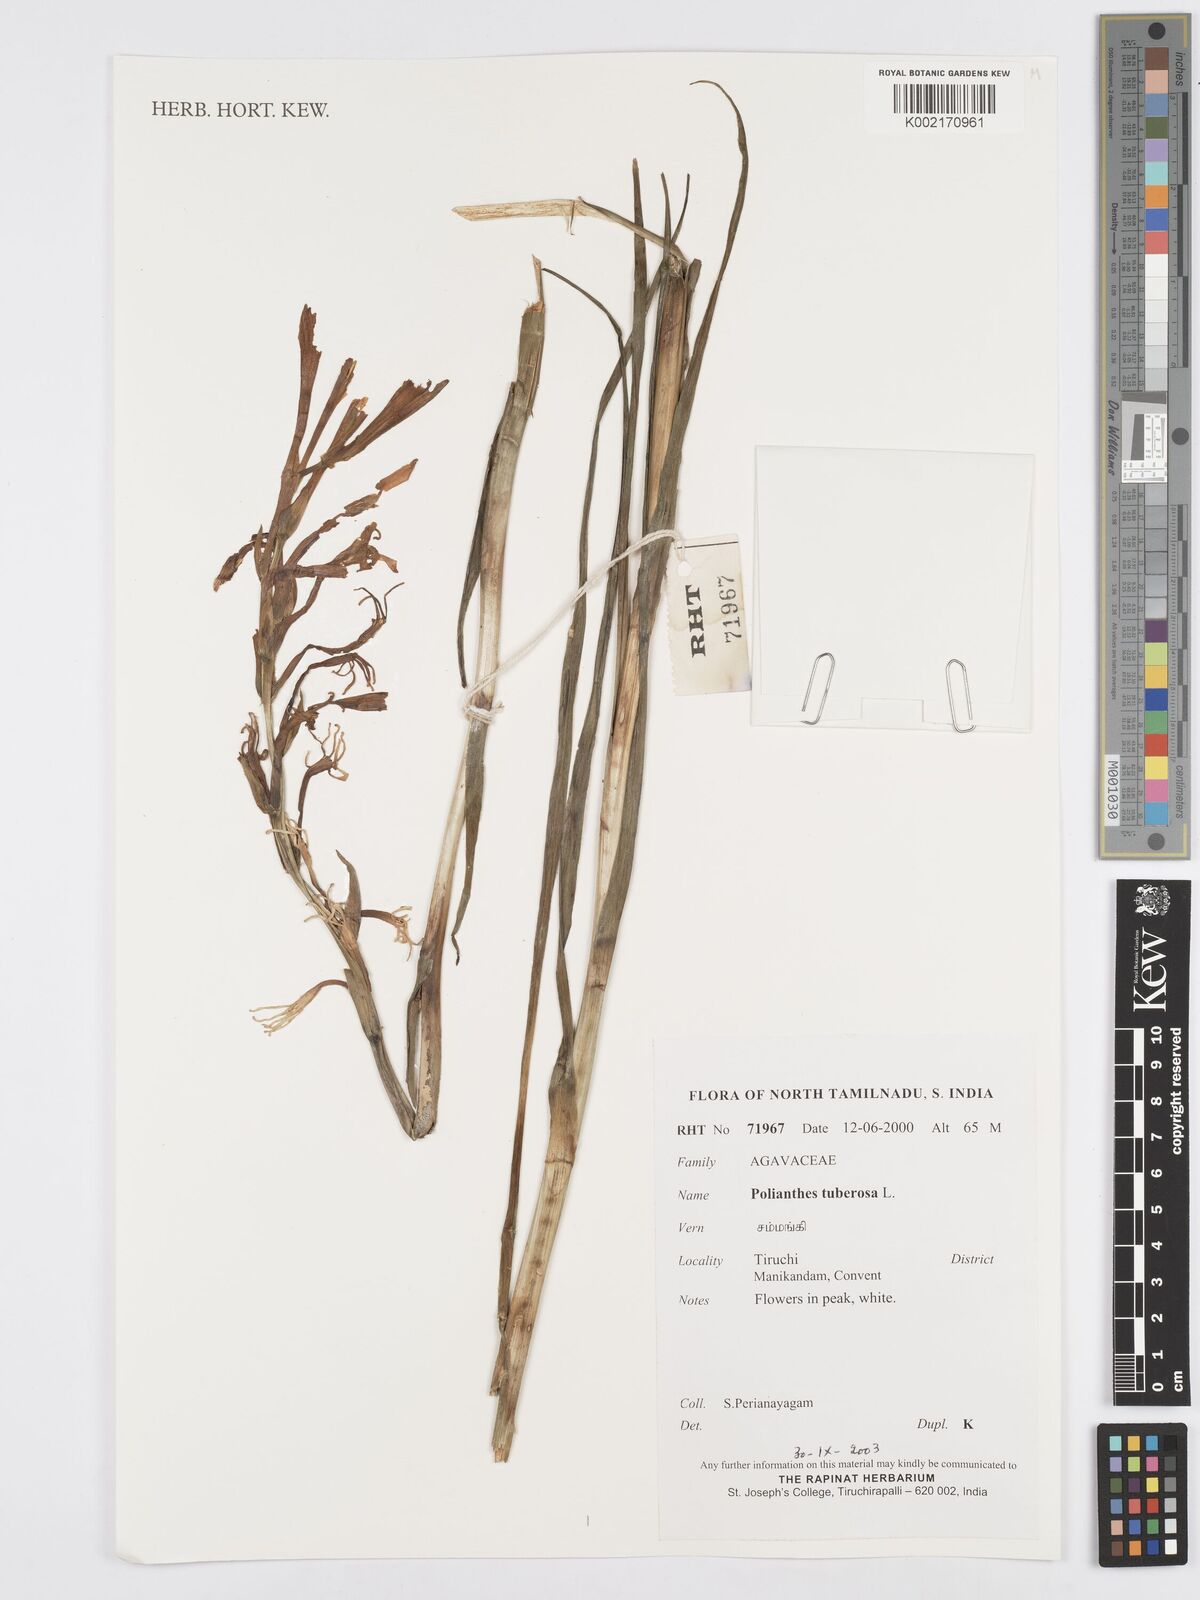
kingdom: Plantae
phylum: Tracheophyta
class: Liliopsida
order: Asparagales
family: Asparagaceae
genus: Agave
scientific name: Agave amica
